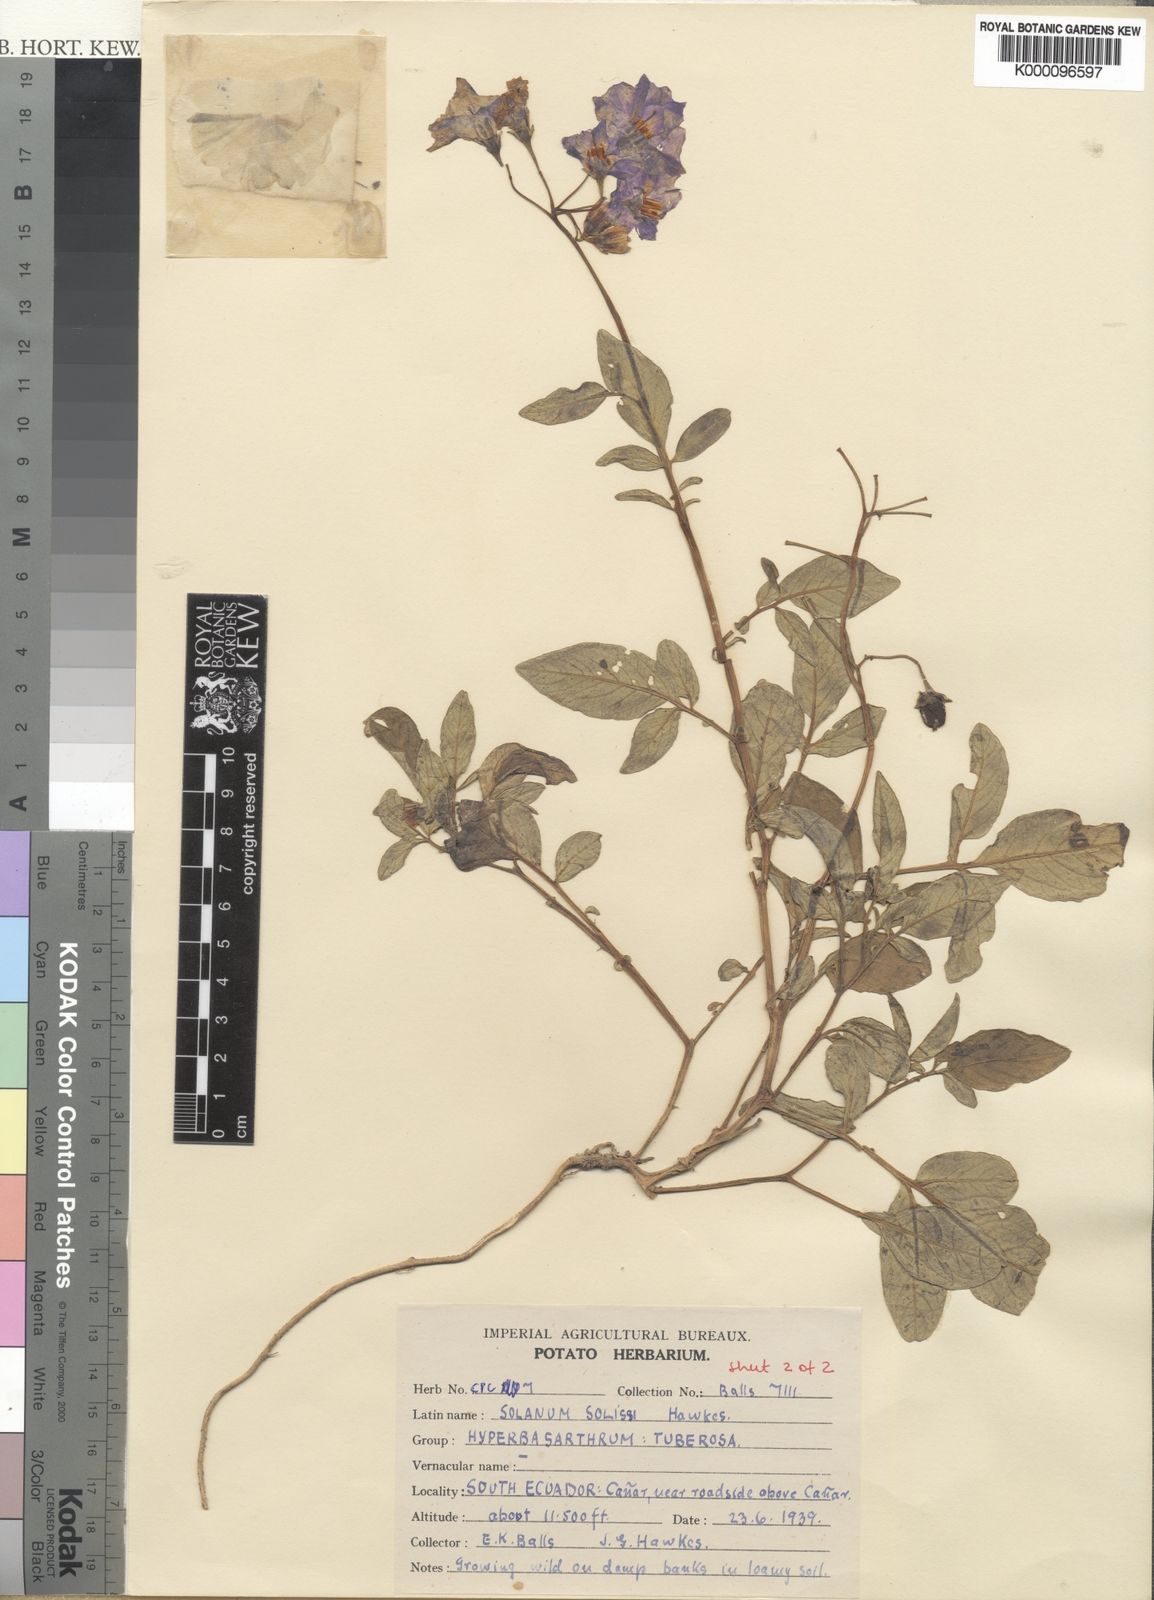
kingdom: Plantae
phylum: Tracheophyta
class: Magnoliopsida
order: Solanales
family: Solanaceae
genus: Solanum
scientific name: Solanum andreanum
